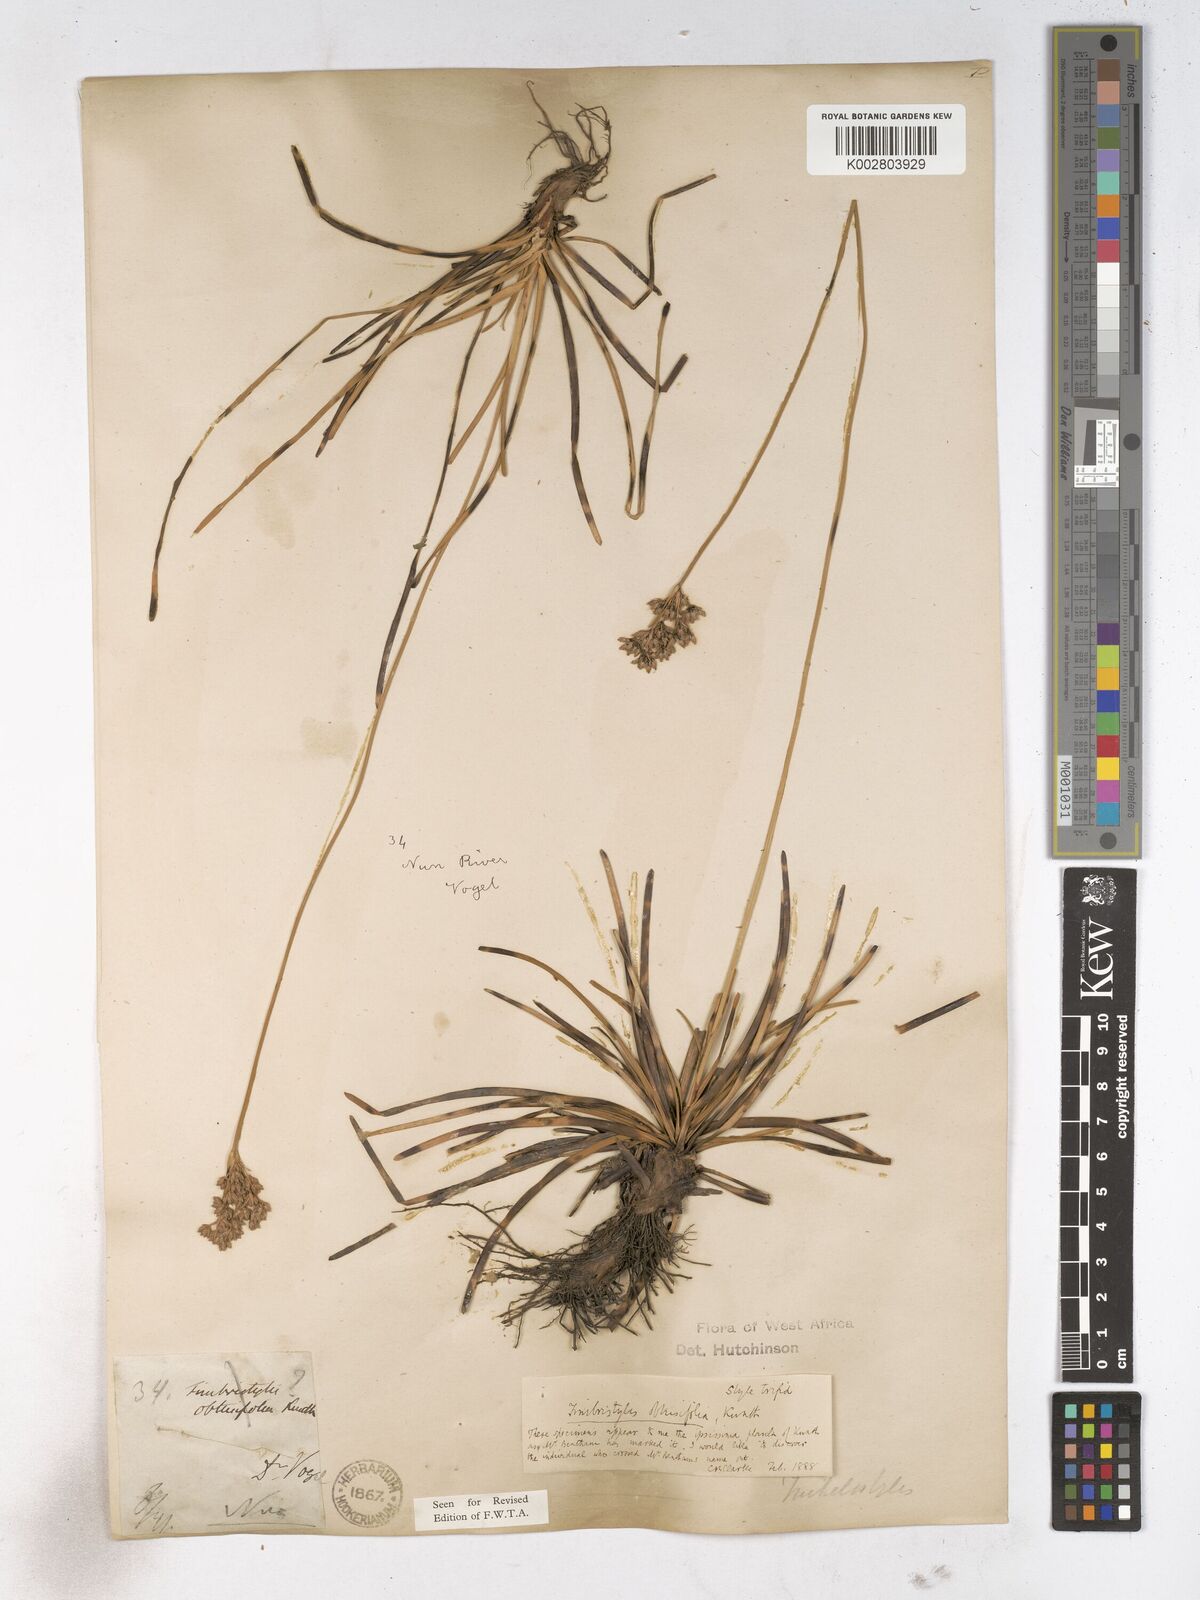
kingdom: Plantae
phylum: Tracheophyta
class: Liliopsida
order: Poales
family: Cyperaceae
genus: Fimbristylis
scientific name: Fimbristylis cymosa
